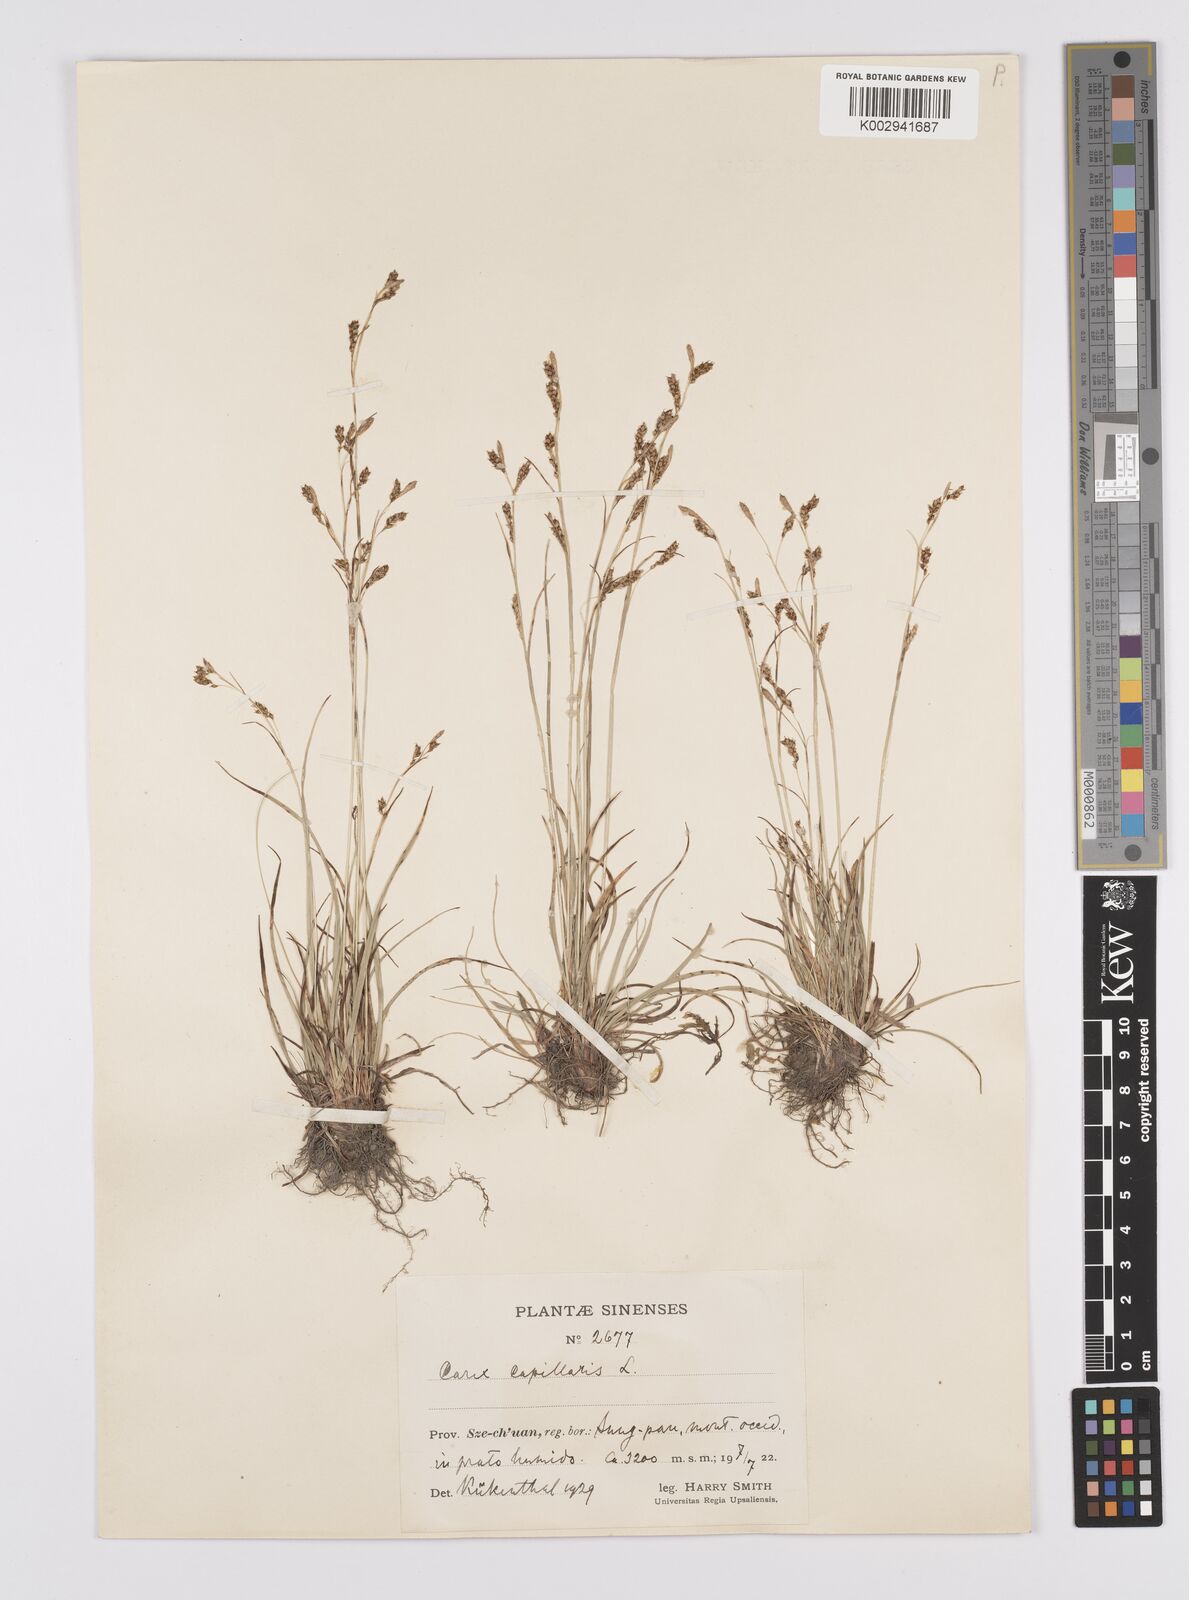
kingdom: Plantae
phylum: Tracheophyta
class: Liliopsida
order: Poales
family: Cyperaceae
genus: Carex
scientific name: Carex capillaris
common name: Hair sedge
